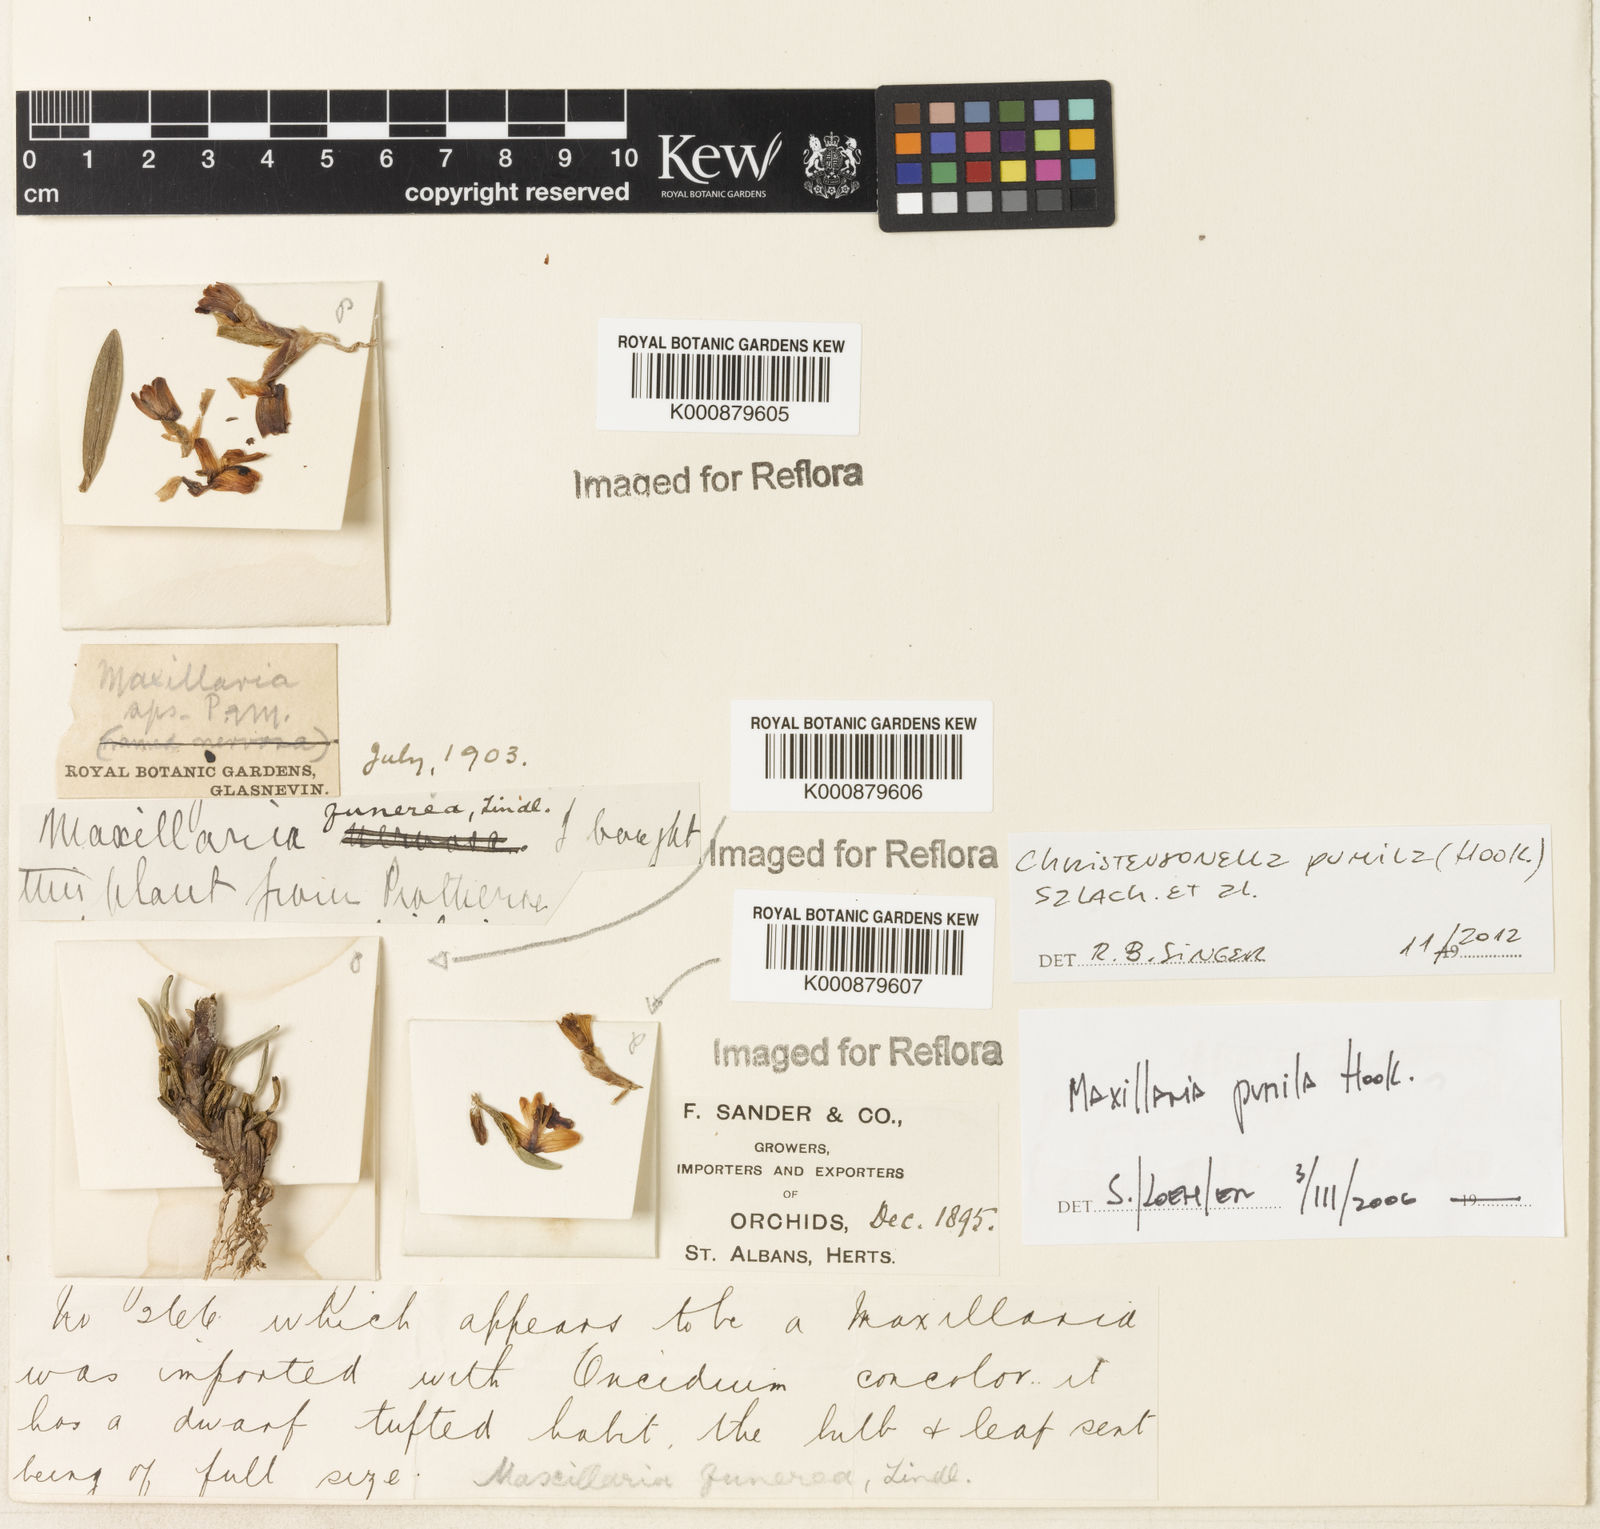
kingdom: Plantae
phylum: Tracheophyta
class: Liliopsida
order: Asparagales
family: Orchidaceae
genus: Maxillaria
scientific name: Maxillaria pumila
